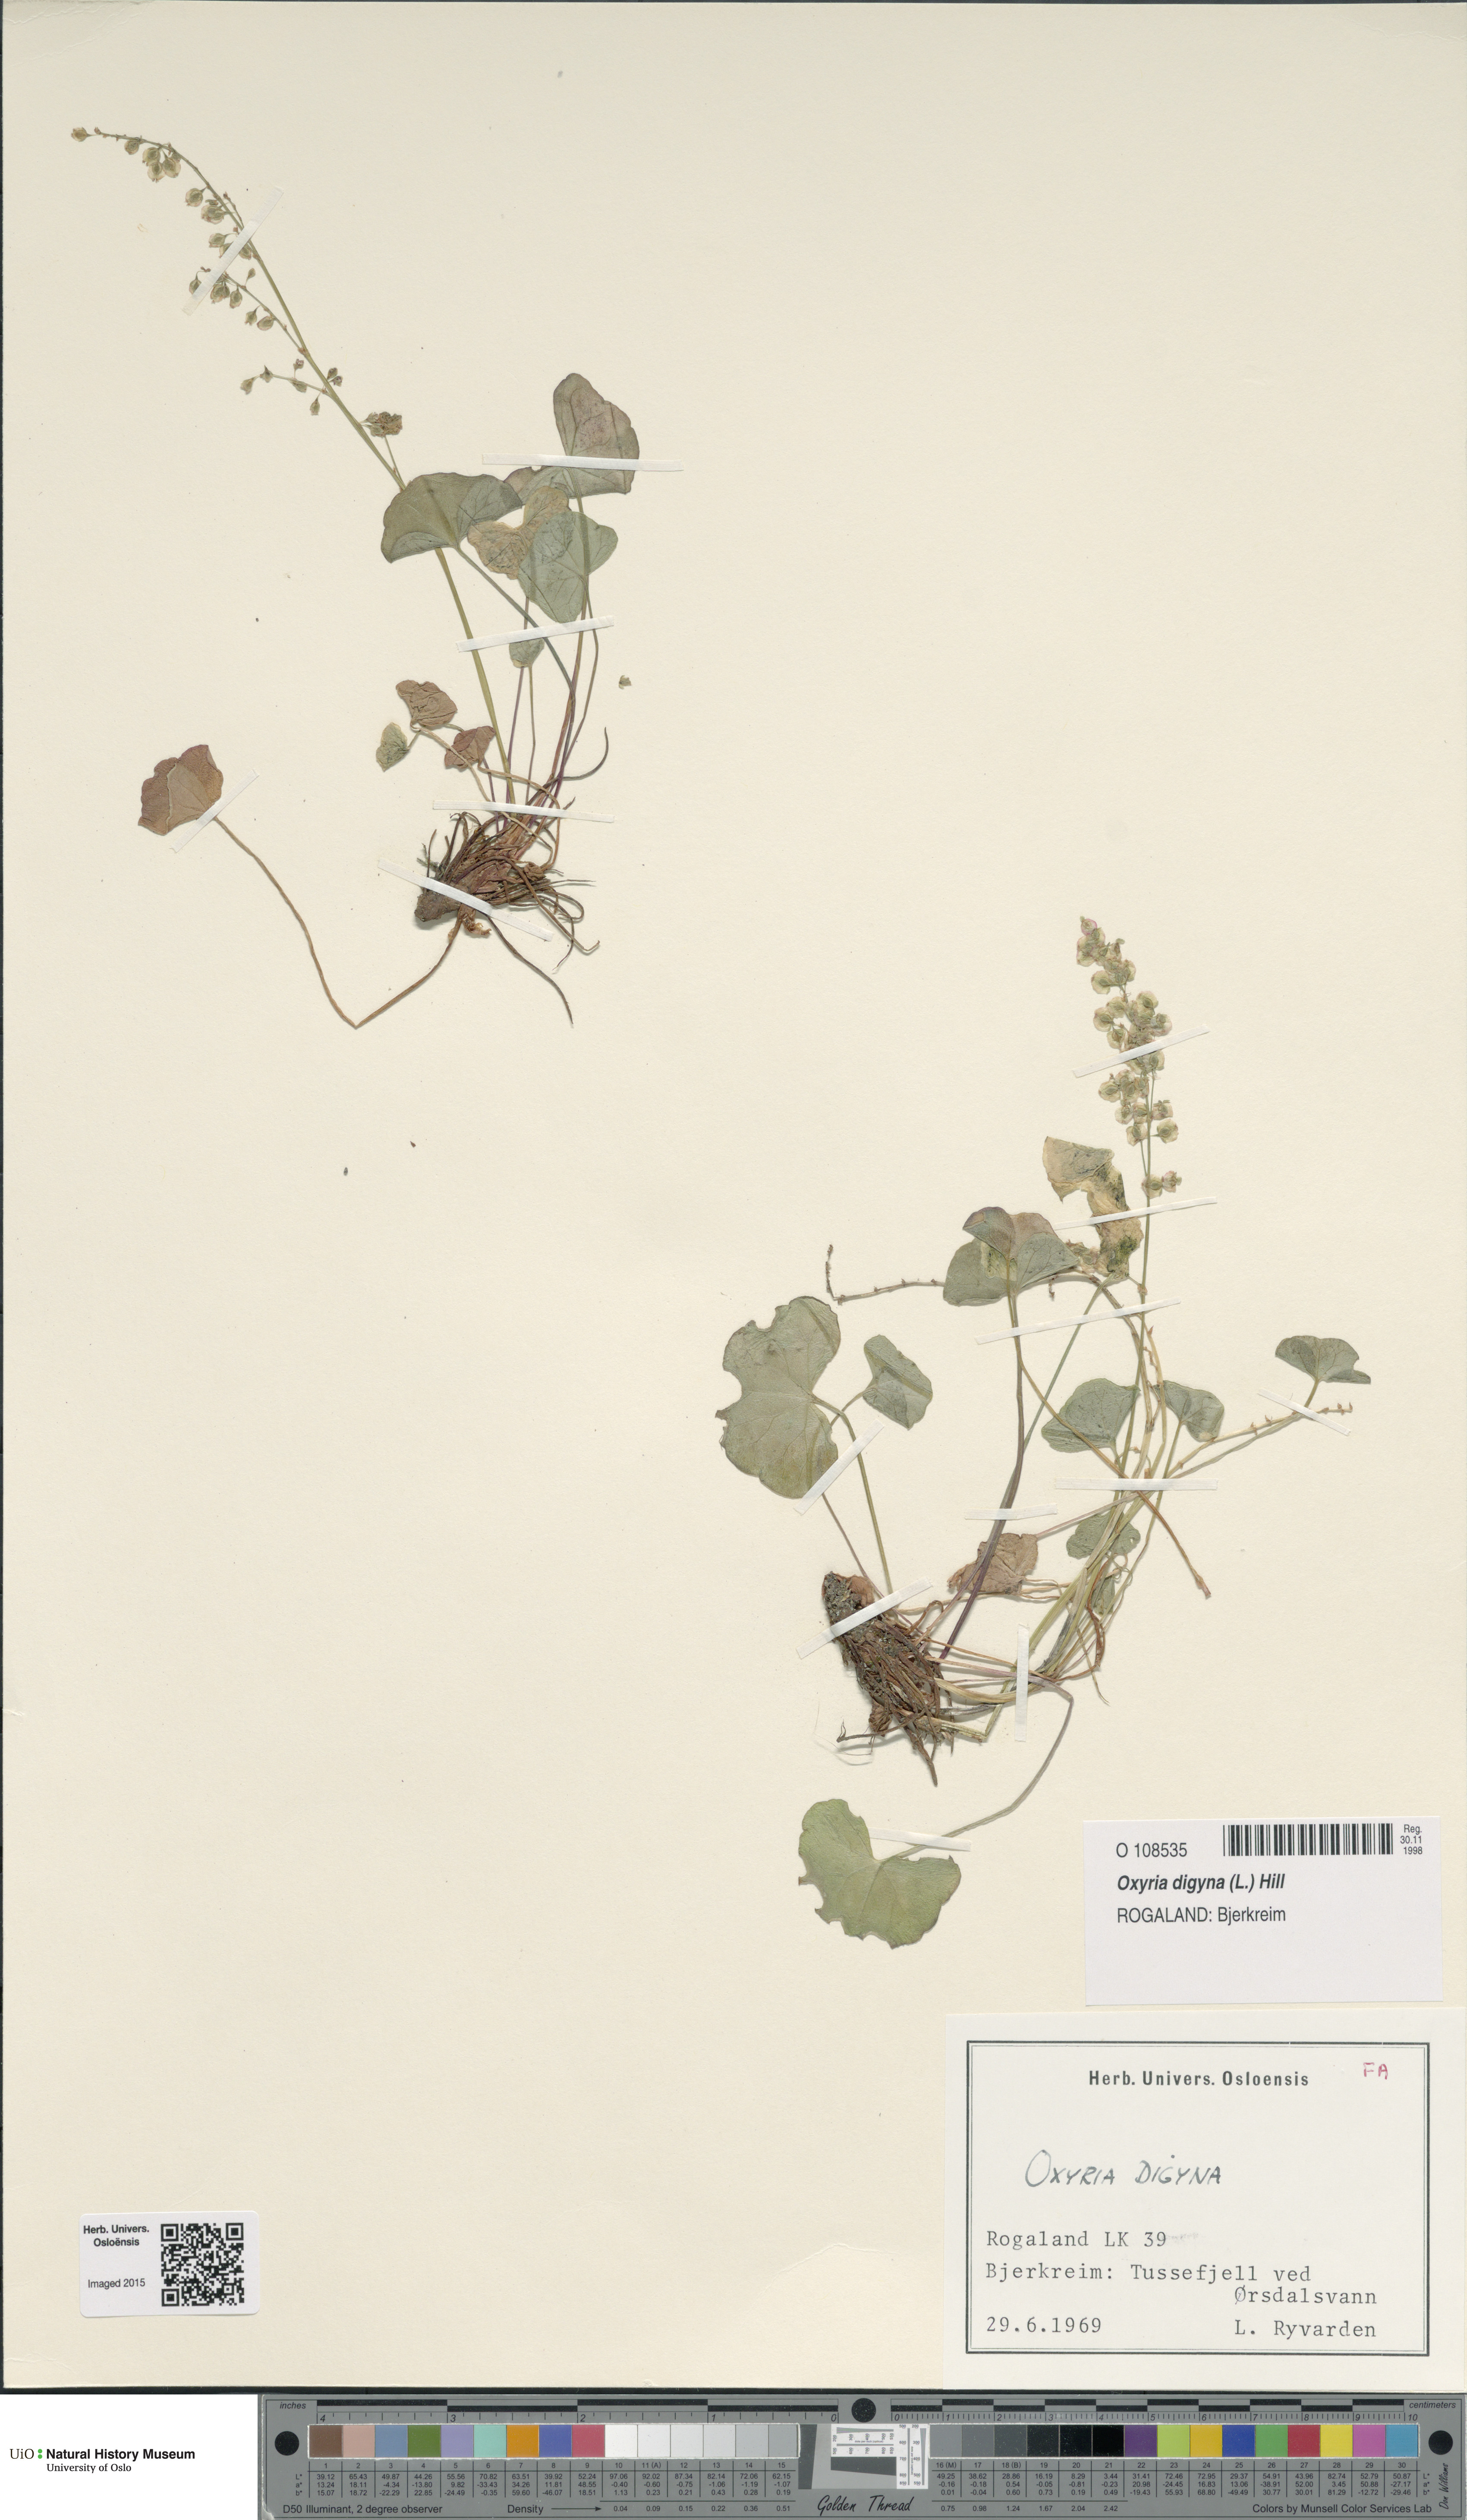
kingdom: Plantae
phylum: Tracheophyta
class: Magnoliopsida
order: Caryophyllales
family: Polygonaceae
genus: Oxyria
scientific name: Oxyria digyna
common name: Alpine mountain-sorrel
